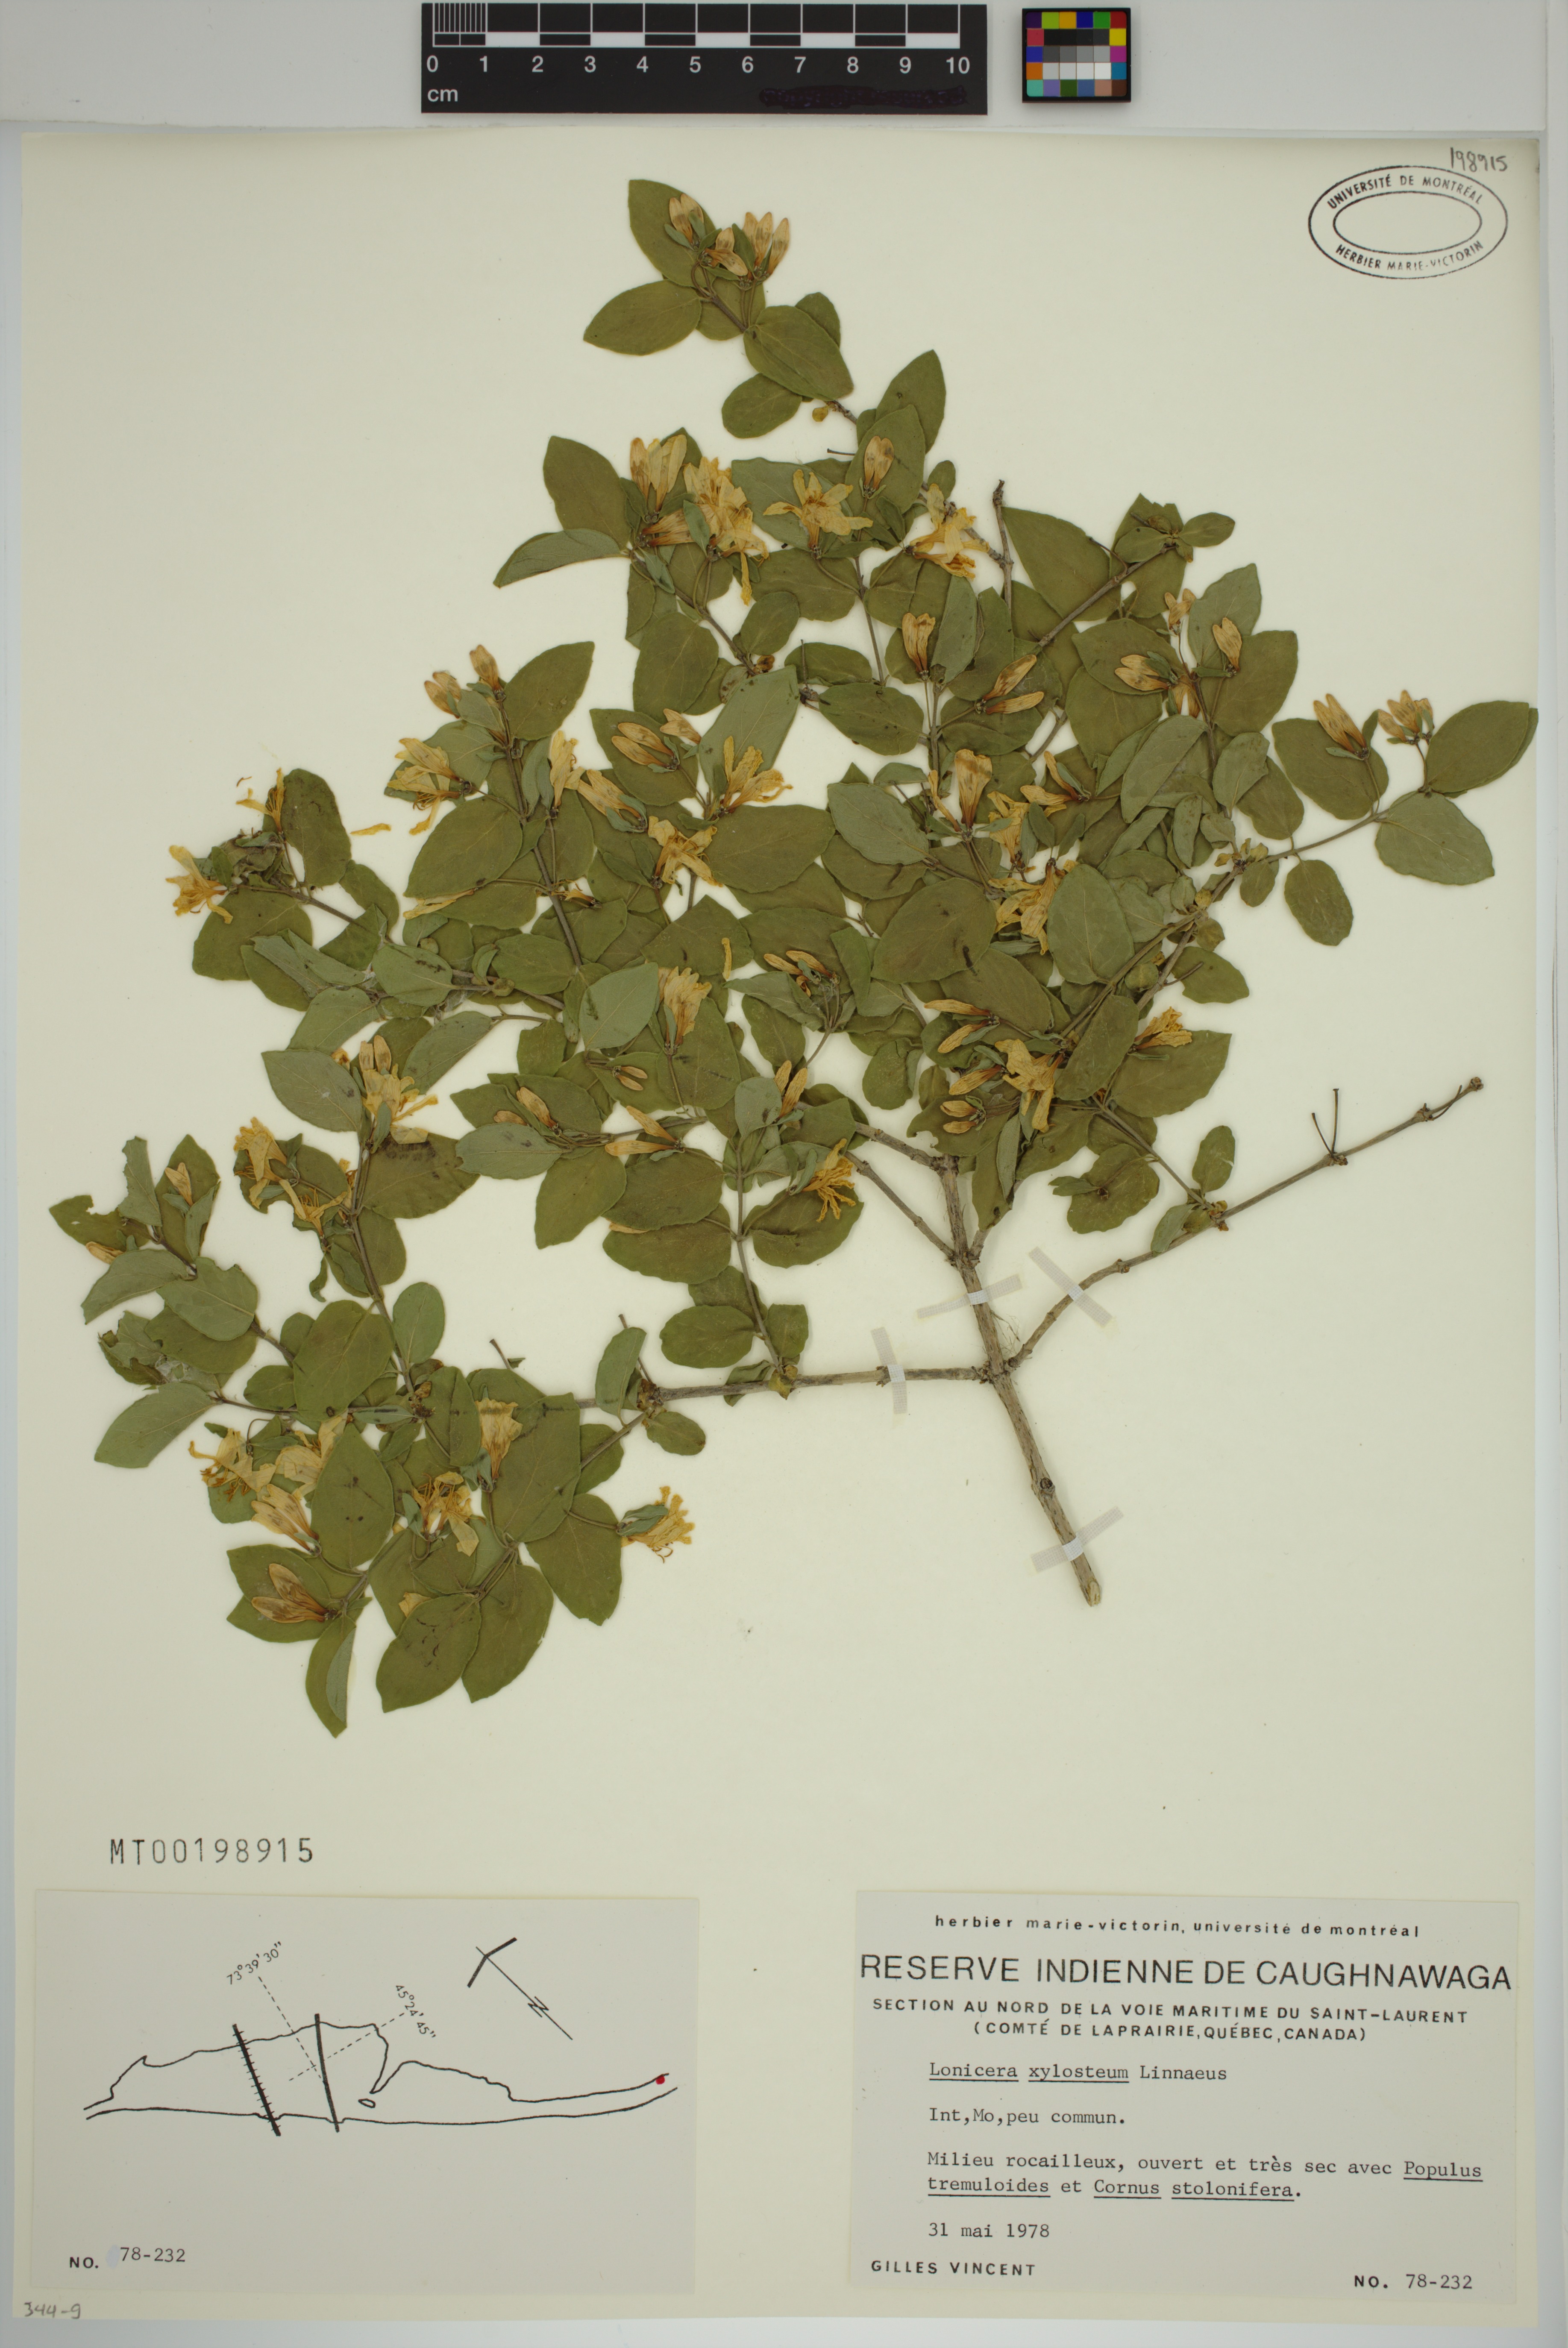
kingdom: Plantae
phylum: Tracheophyta
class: Magnoliopsida
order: Dipsacales
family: Caprifoliaceae
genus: Lonicera
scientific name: Lonicera bella
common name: Bell's honeysuckle
